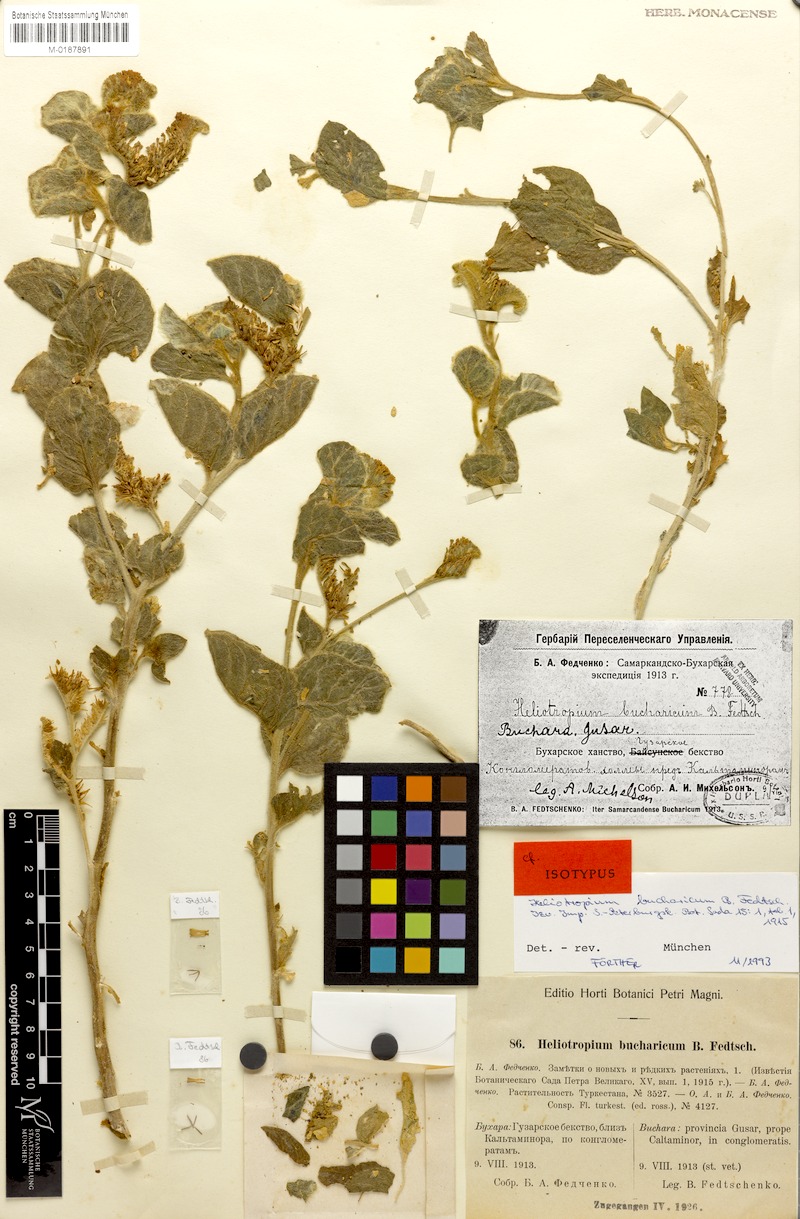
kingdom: Plantae
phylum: Tracheophyta
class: Magnoliopsida
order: Boraginales
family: Heliotropiaceae
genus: Heliotropium
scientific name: Heliotropium bucharicum
